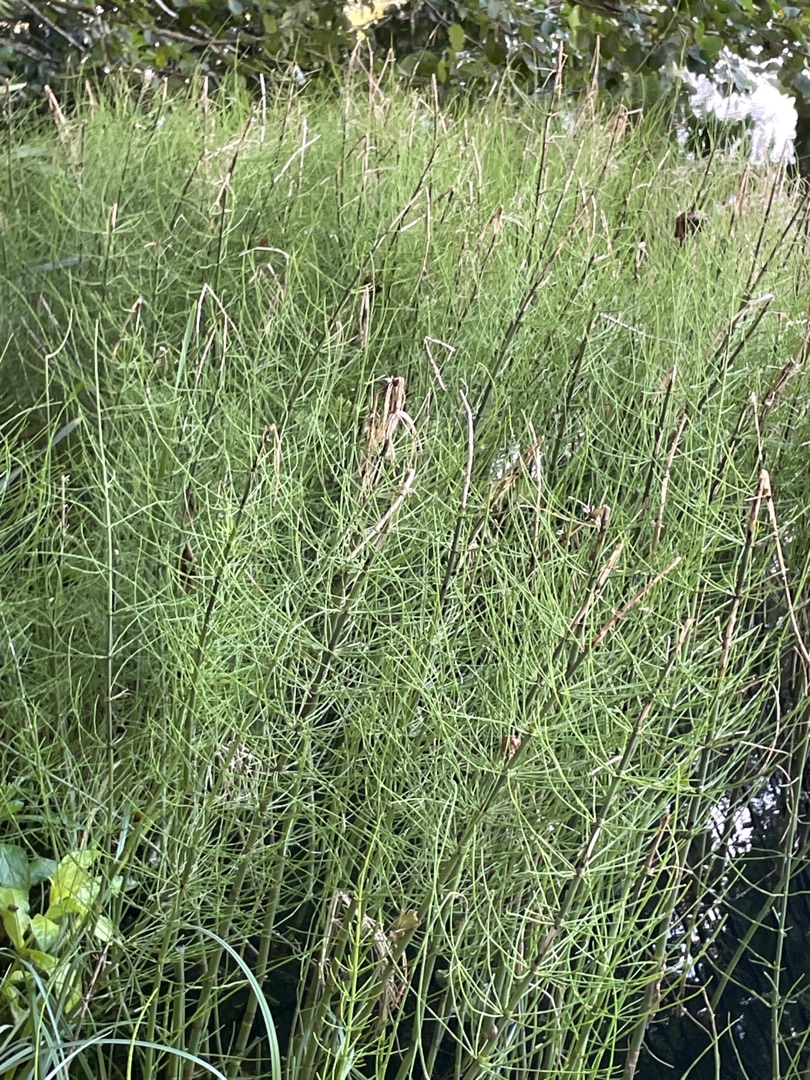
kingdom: Plantae
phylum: Tracheophyta
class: Polypodiopsida
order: Equisetales
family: Equisetaceae
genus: Equisetum
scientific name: Equisetum fluviatile
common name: Dynd-padderok
